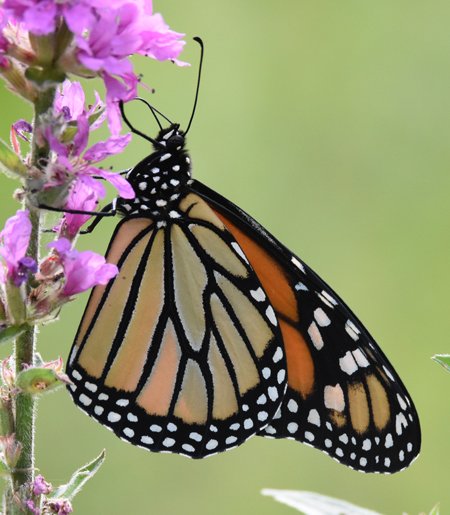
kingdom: Animalia
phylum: Arthropoda
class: Insecta
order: Lepidoptera
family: Nymphalidae
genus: Danaus
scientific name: Danaus plexippus
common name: Monarch
